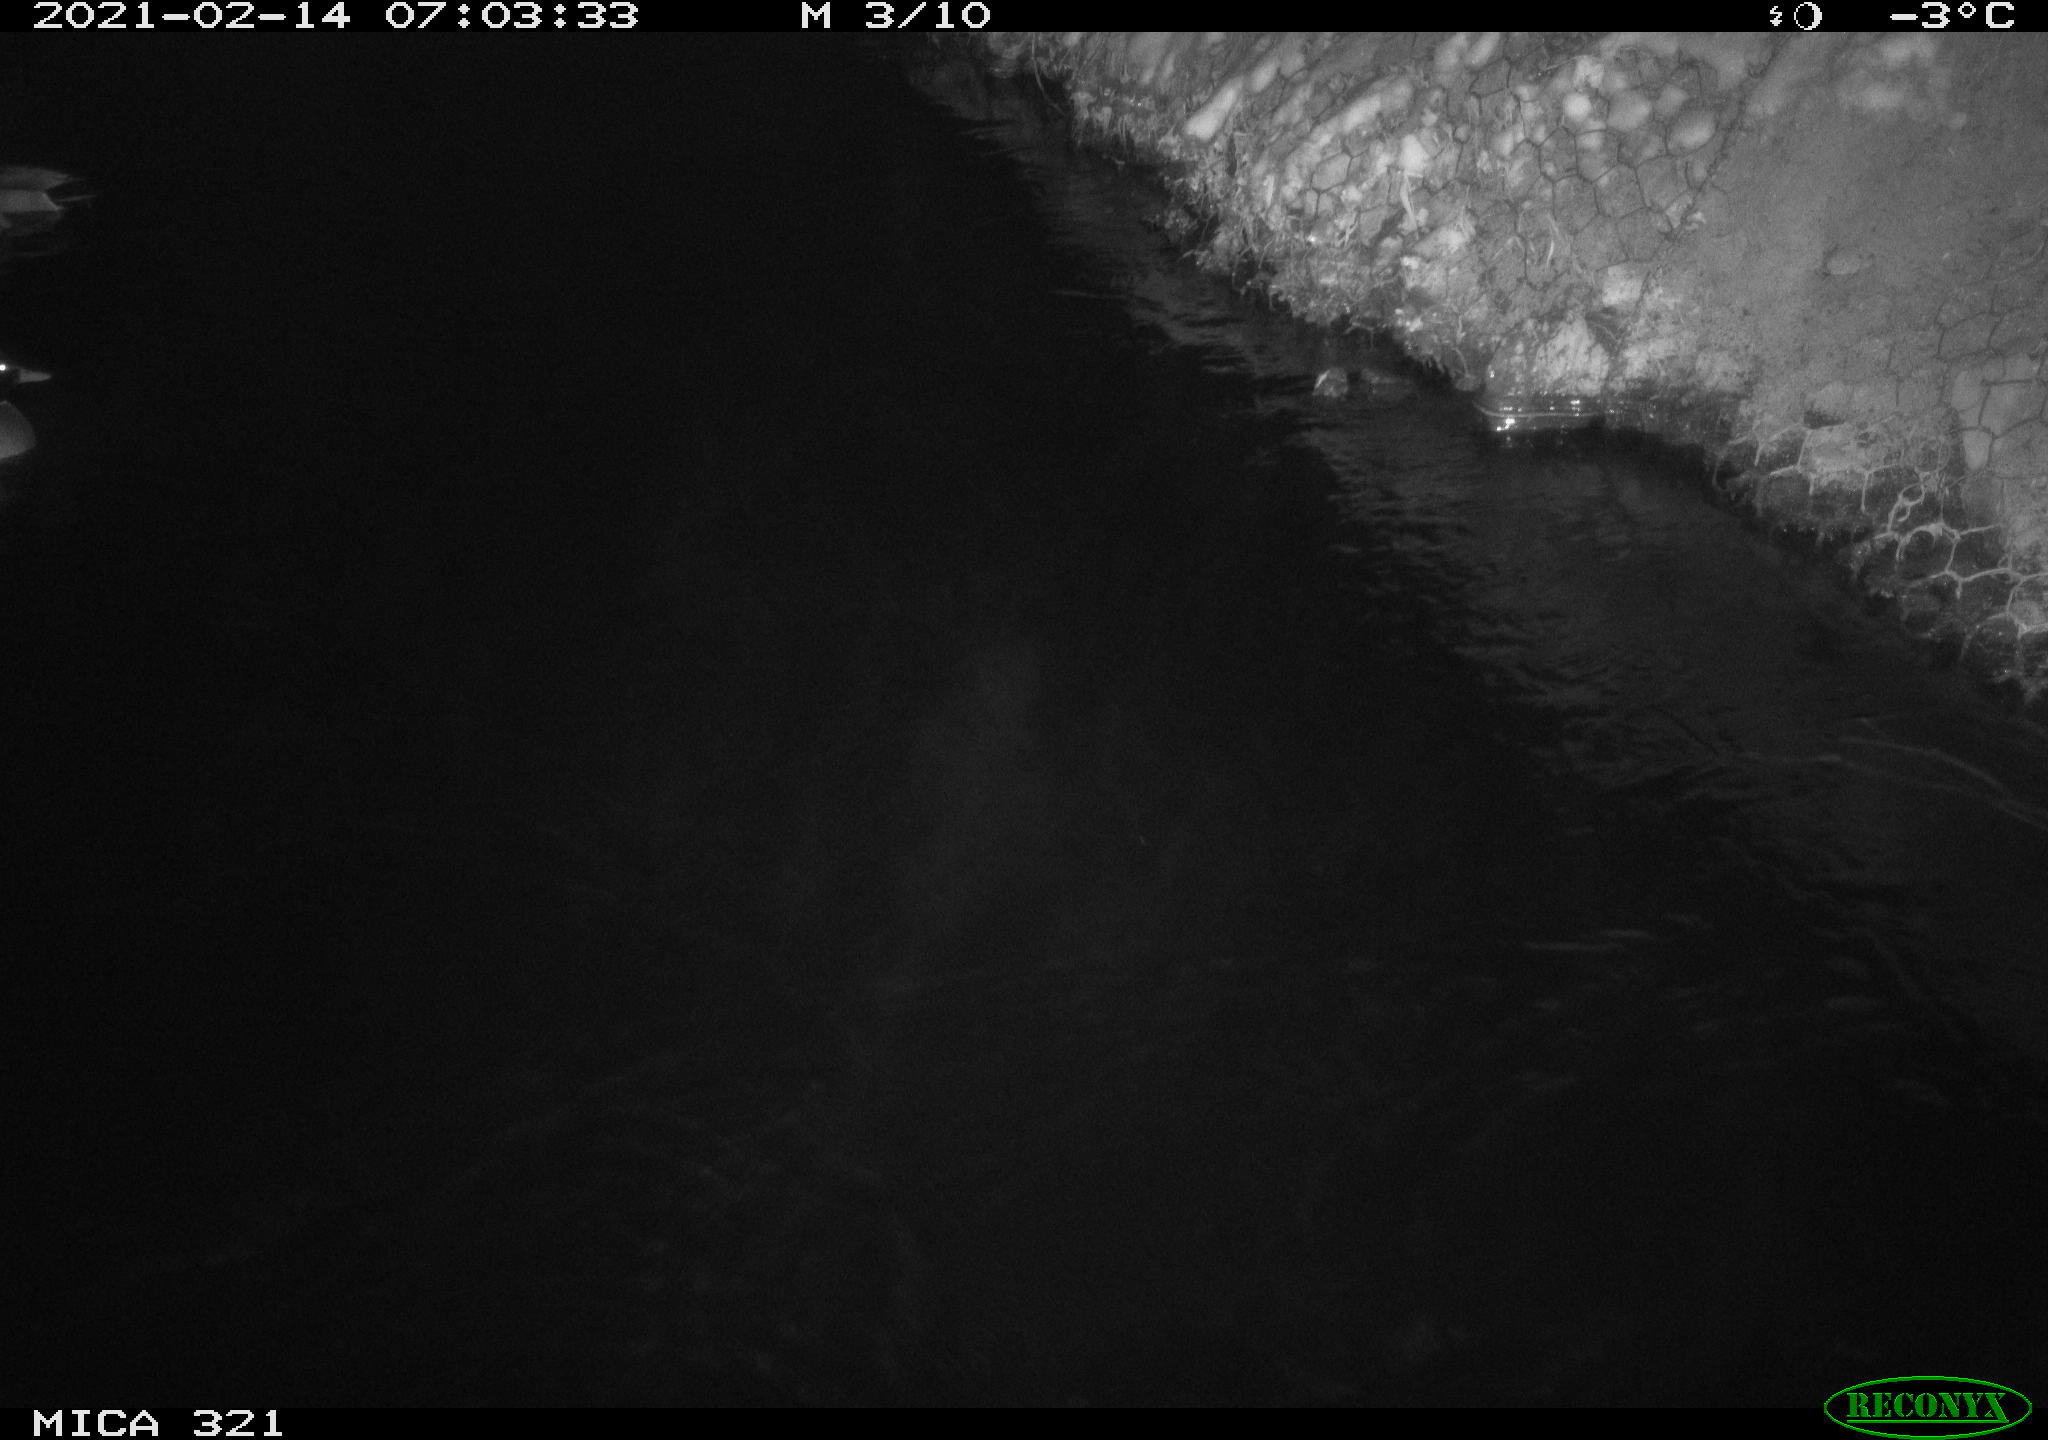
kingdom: Animalia
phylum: Chordata
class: Aves
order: Anseriformes
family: Anatidae
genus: Anas
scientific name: Anas platyrhynchos
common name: Mallard
